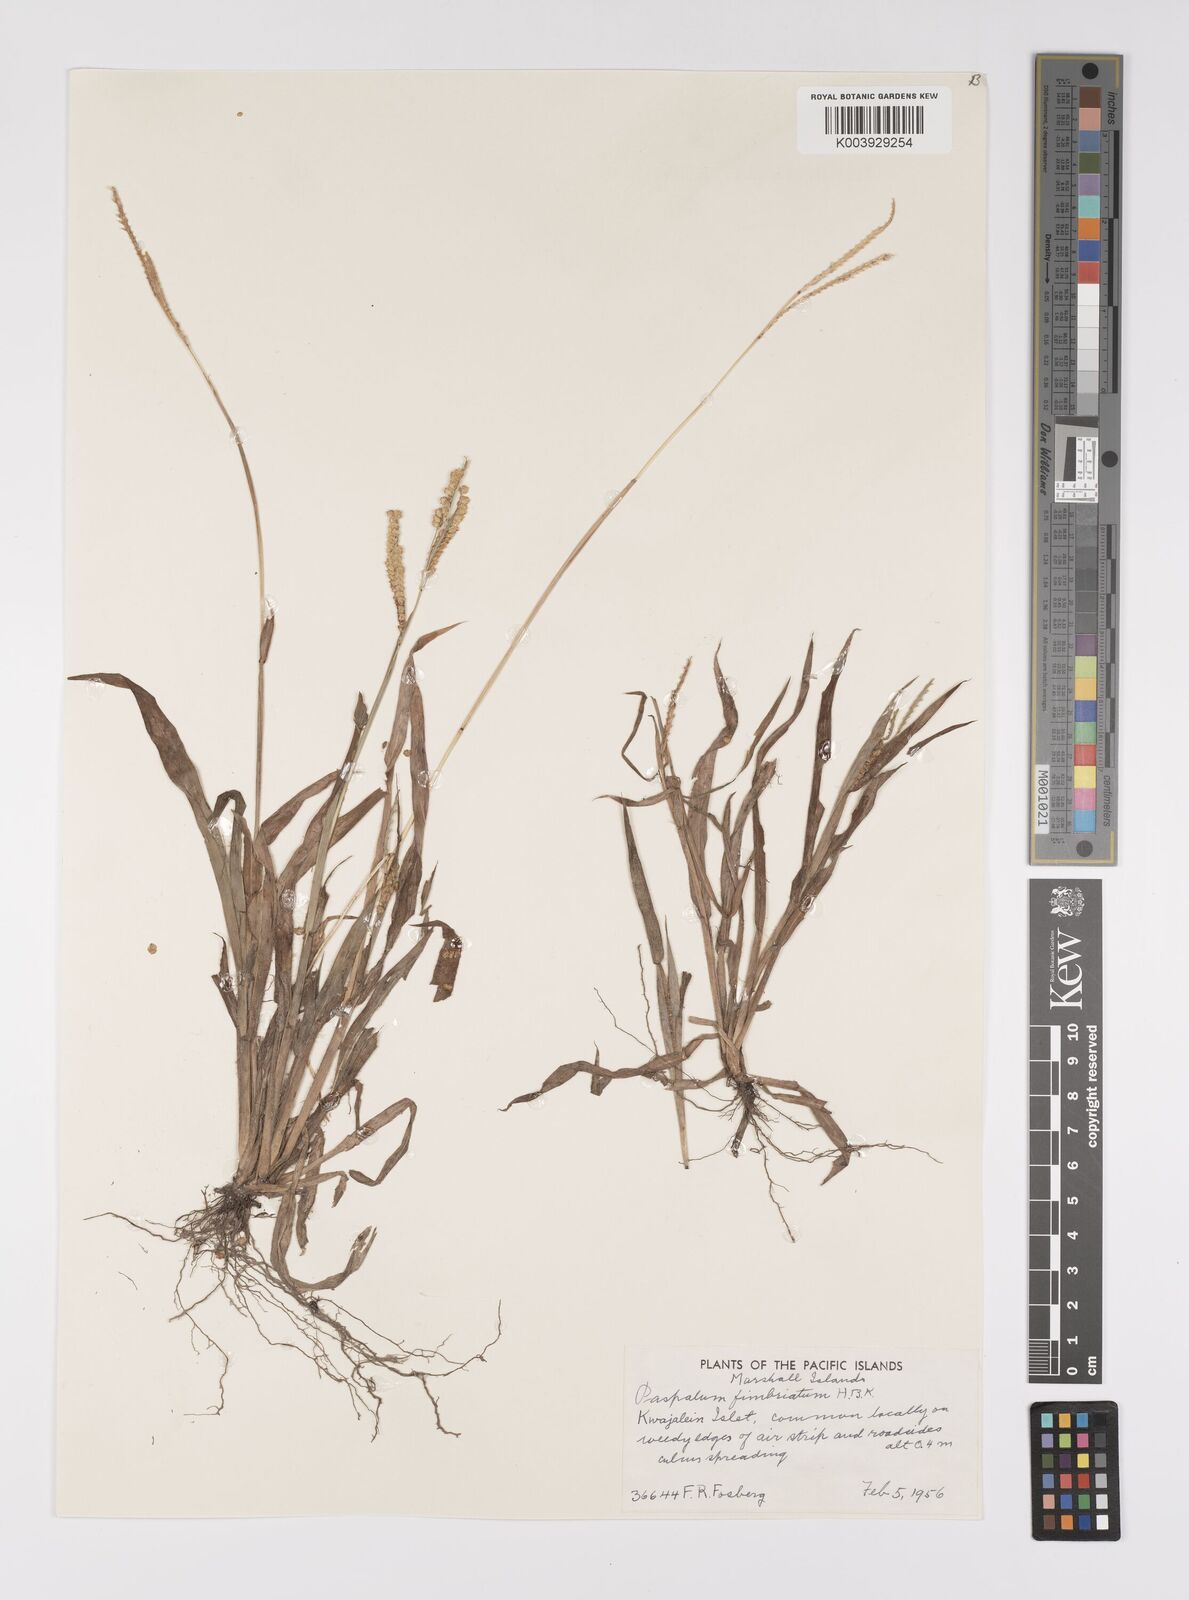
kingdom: Plantae
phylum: Tracheophyta
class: Liliopsida
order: Poales
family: Poaceae
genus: Paspalum
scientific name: Paspalum fimbriatum
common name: Panama crowngrass
